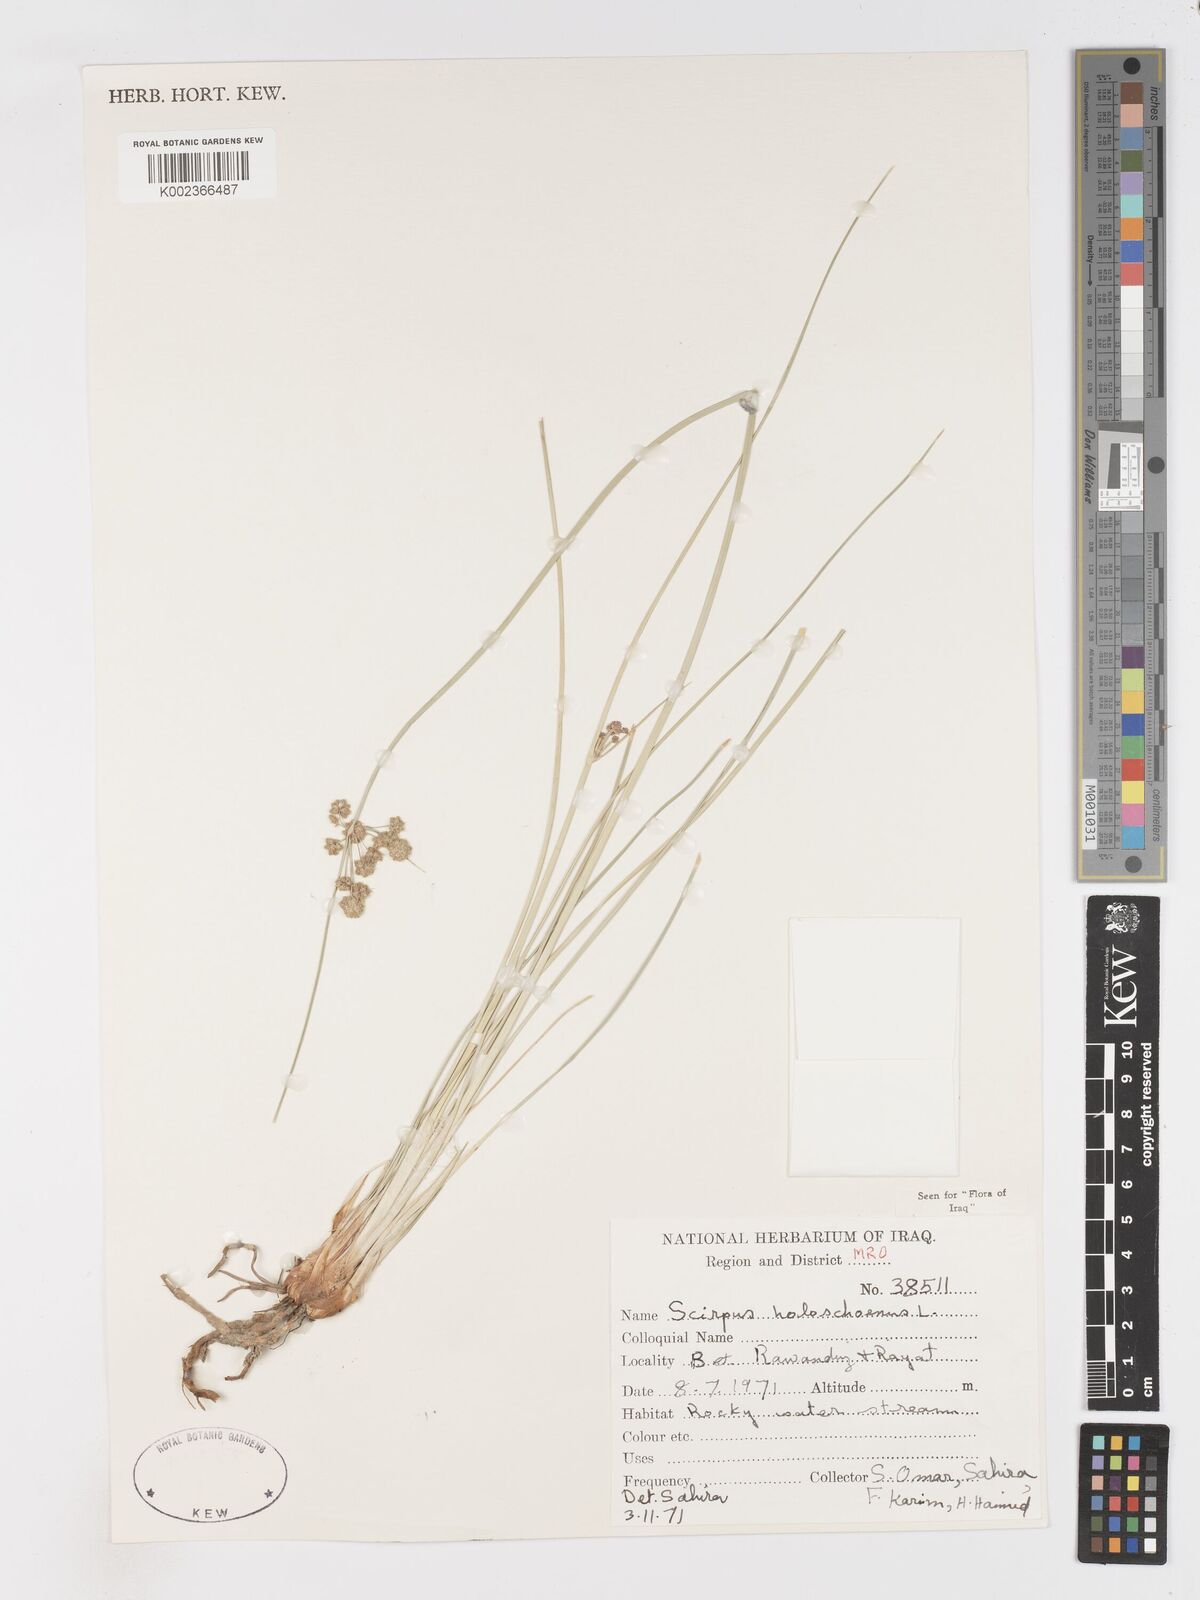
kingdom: Plantae
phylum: Tracheophyta
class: Liliopsida
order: Poales
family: Cyperaceae
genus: Scirpoides
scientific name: Scirpoides holoschoenus
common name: Round-headed club-rush
